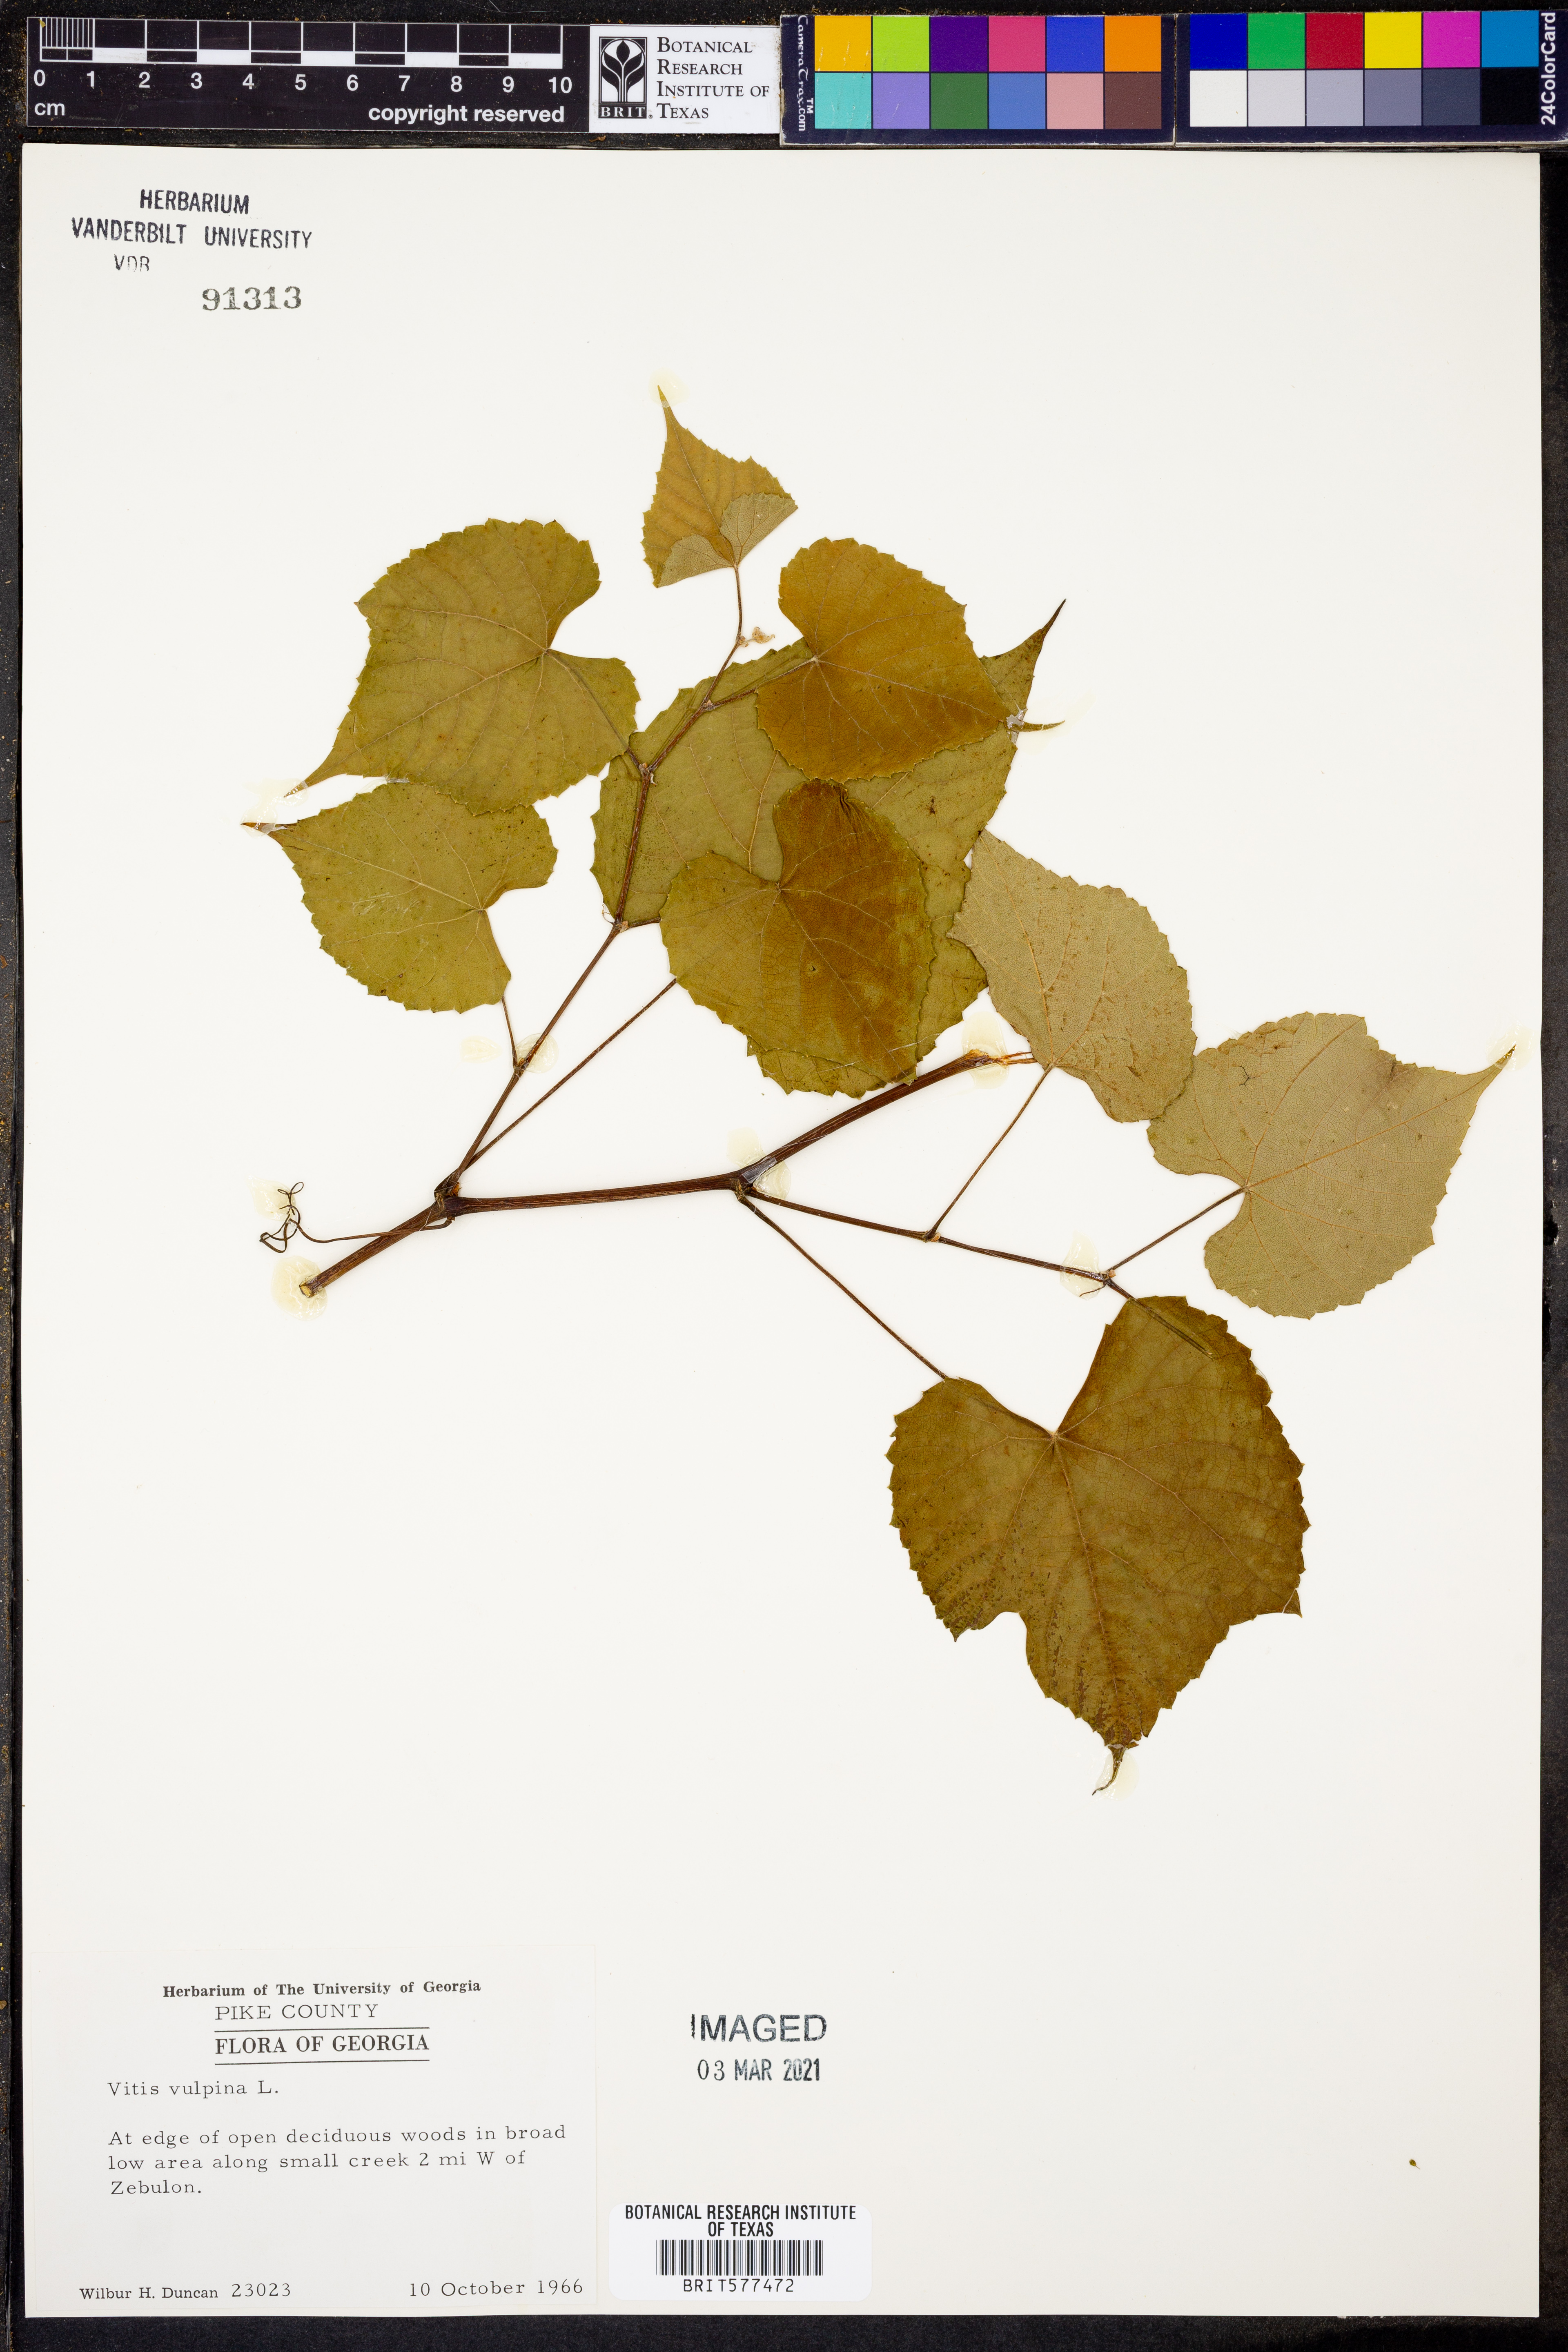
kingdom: Plantae
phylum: Tracheophyta
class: Magnoliopsida
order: Vitales
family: Vitaceae
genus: Vitis
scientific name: Vitis vulpina
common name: Frost grape
